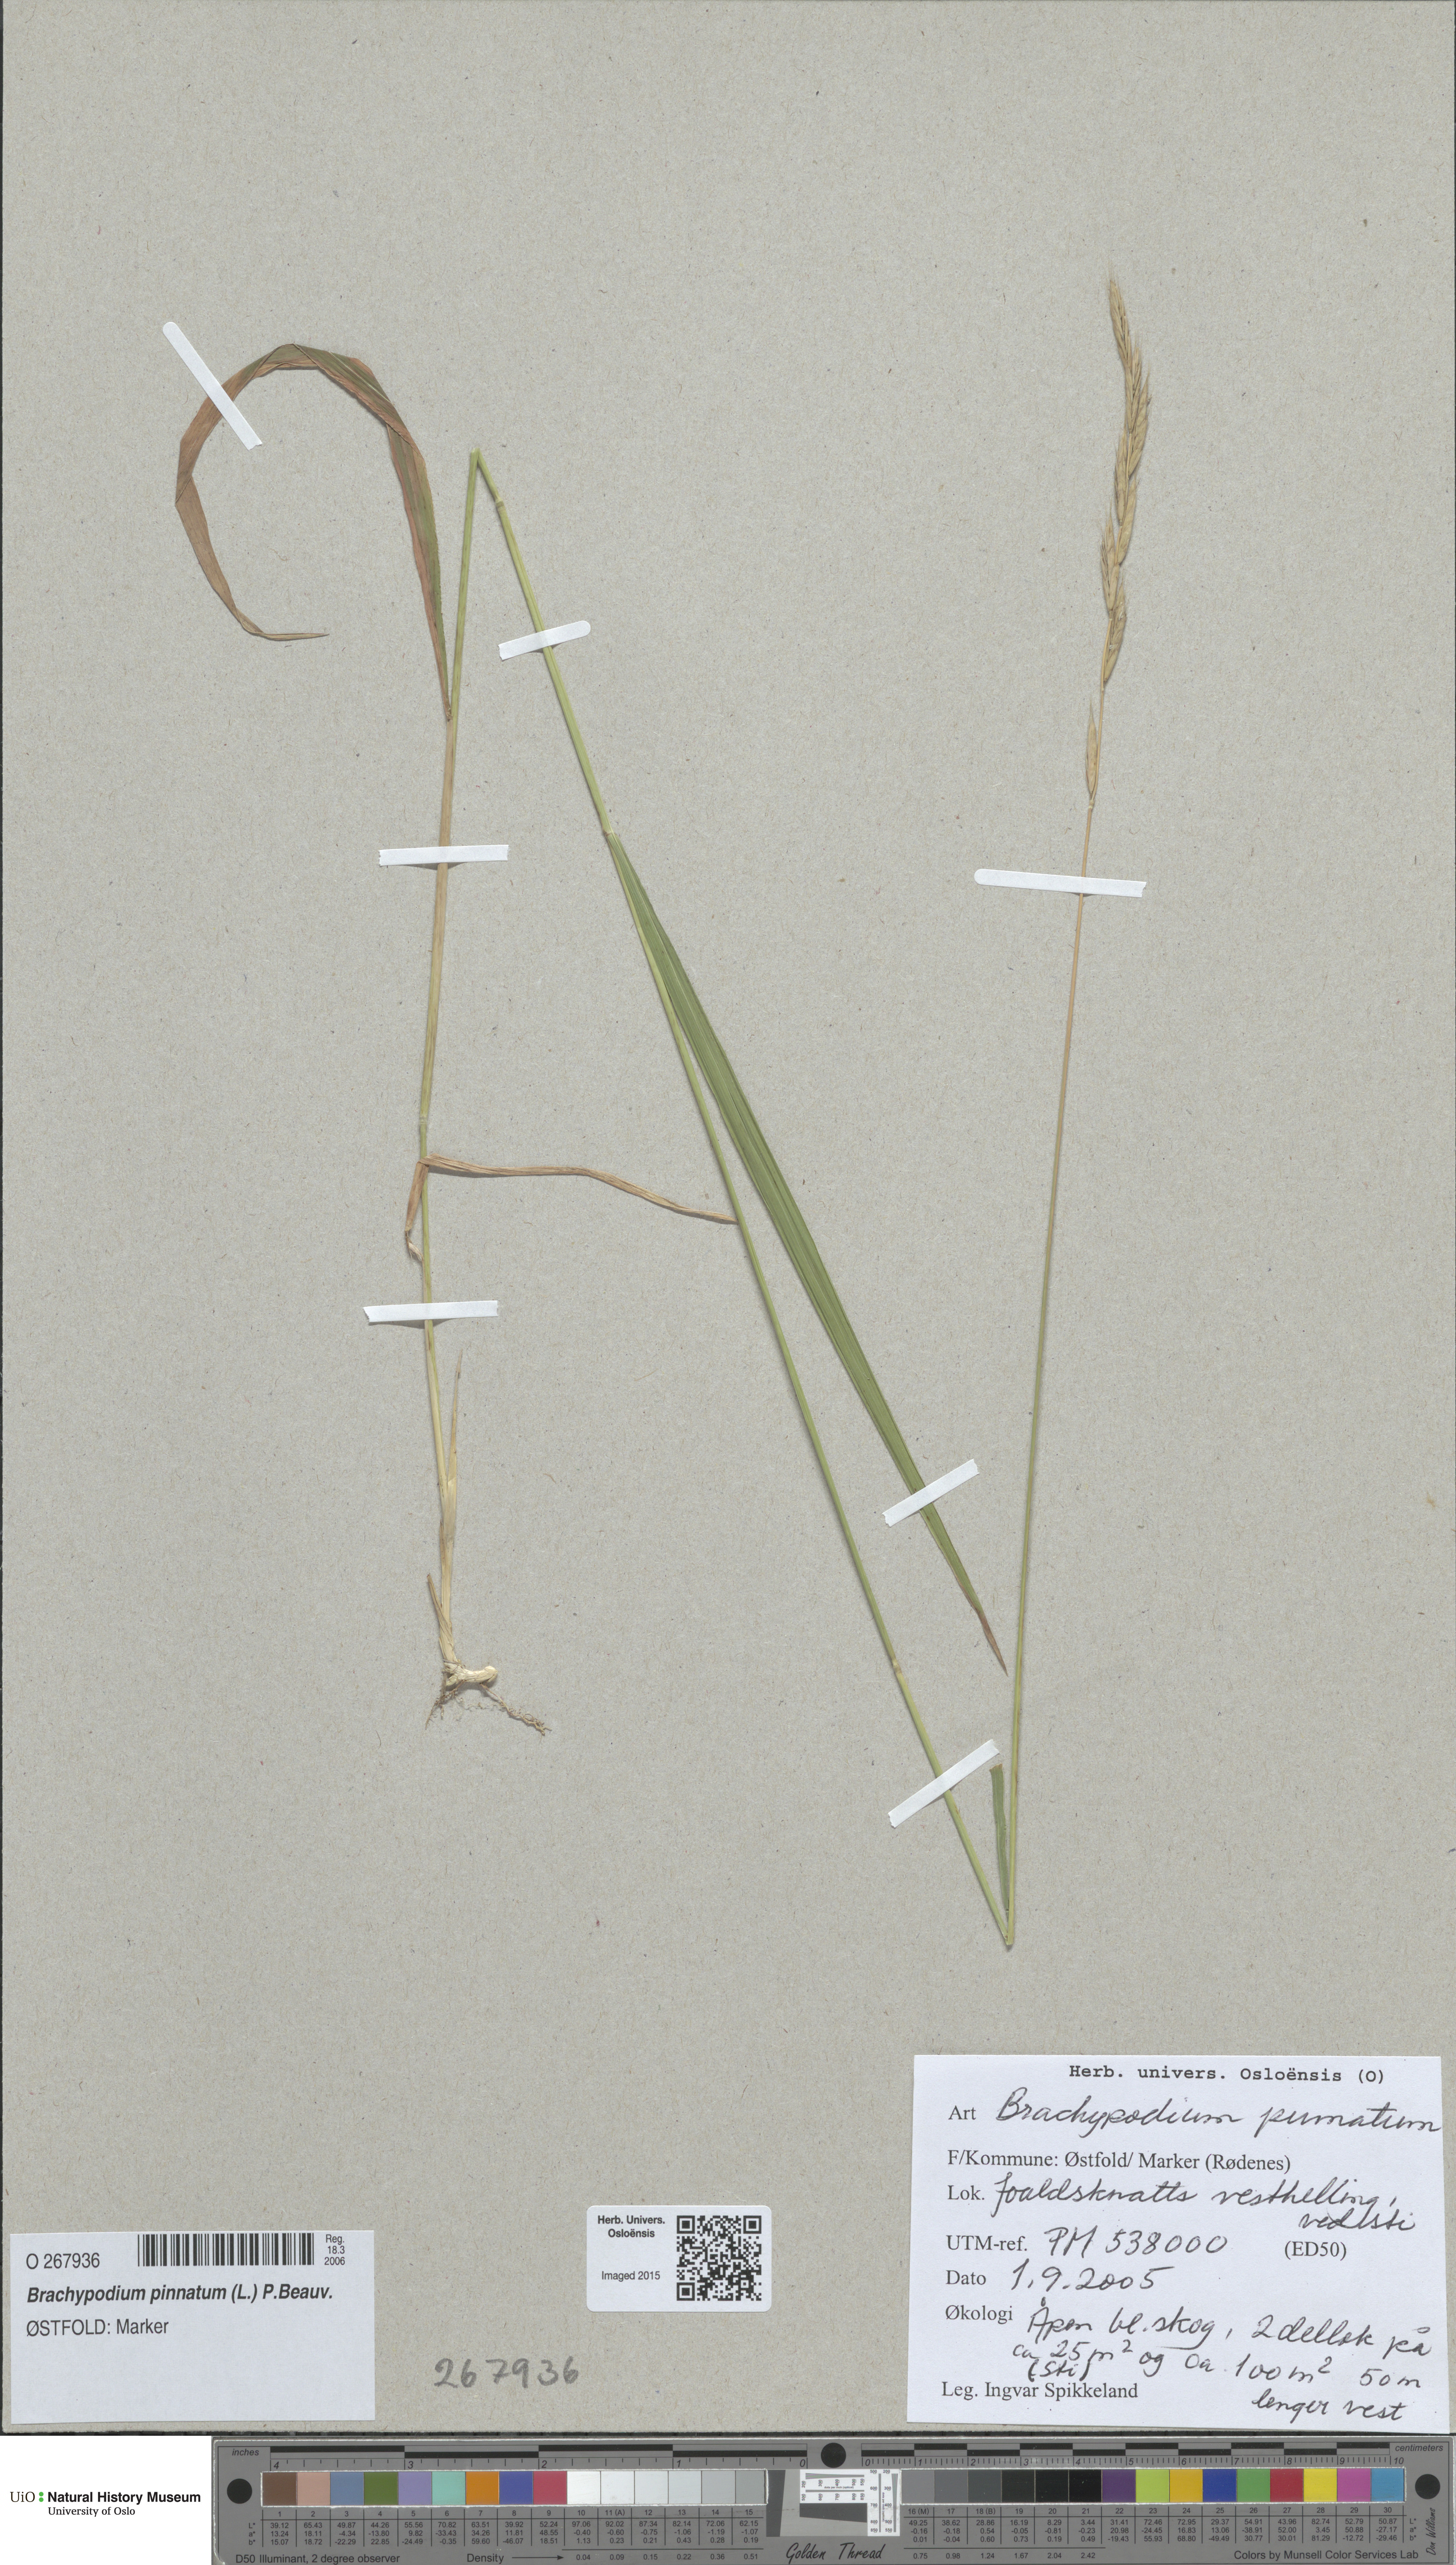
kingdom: Plantae
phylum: Tracheophyta
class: Liliopsida
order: Poales
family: Poaceae
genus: Brachypodium
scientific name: Brachypodium pinnatum
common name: Tor grass
